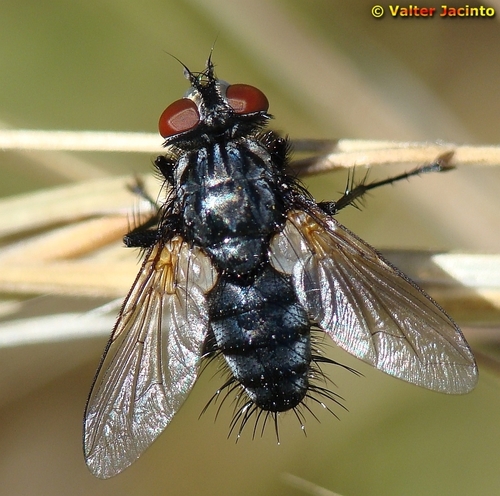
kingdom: Animalia
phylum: Arthropoda
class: Insecta
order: Diptera
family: Tachinidae
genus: Labigastera
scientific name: Labigastera
